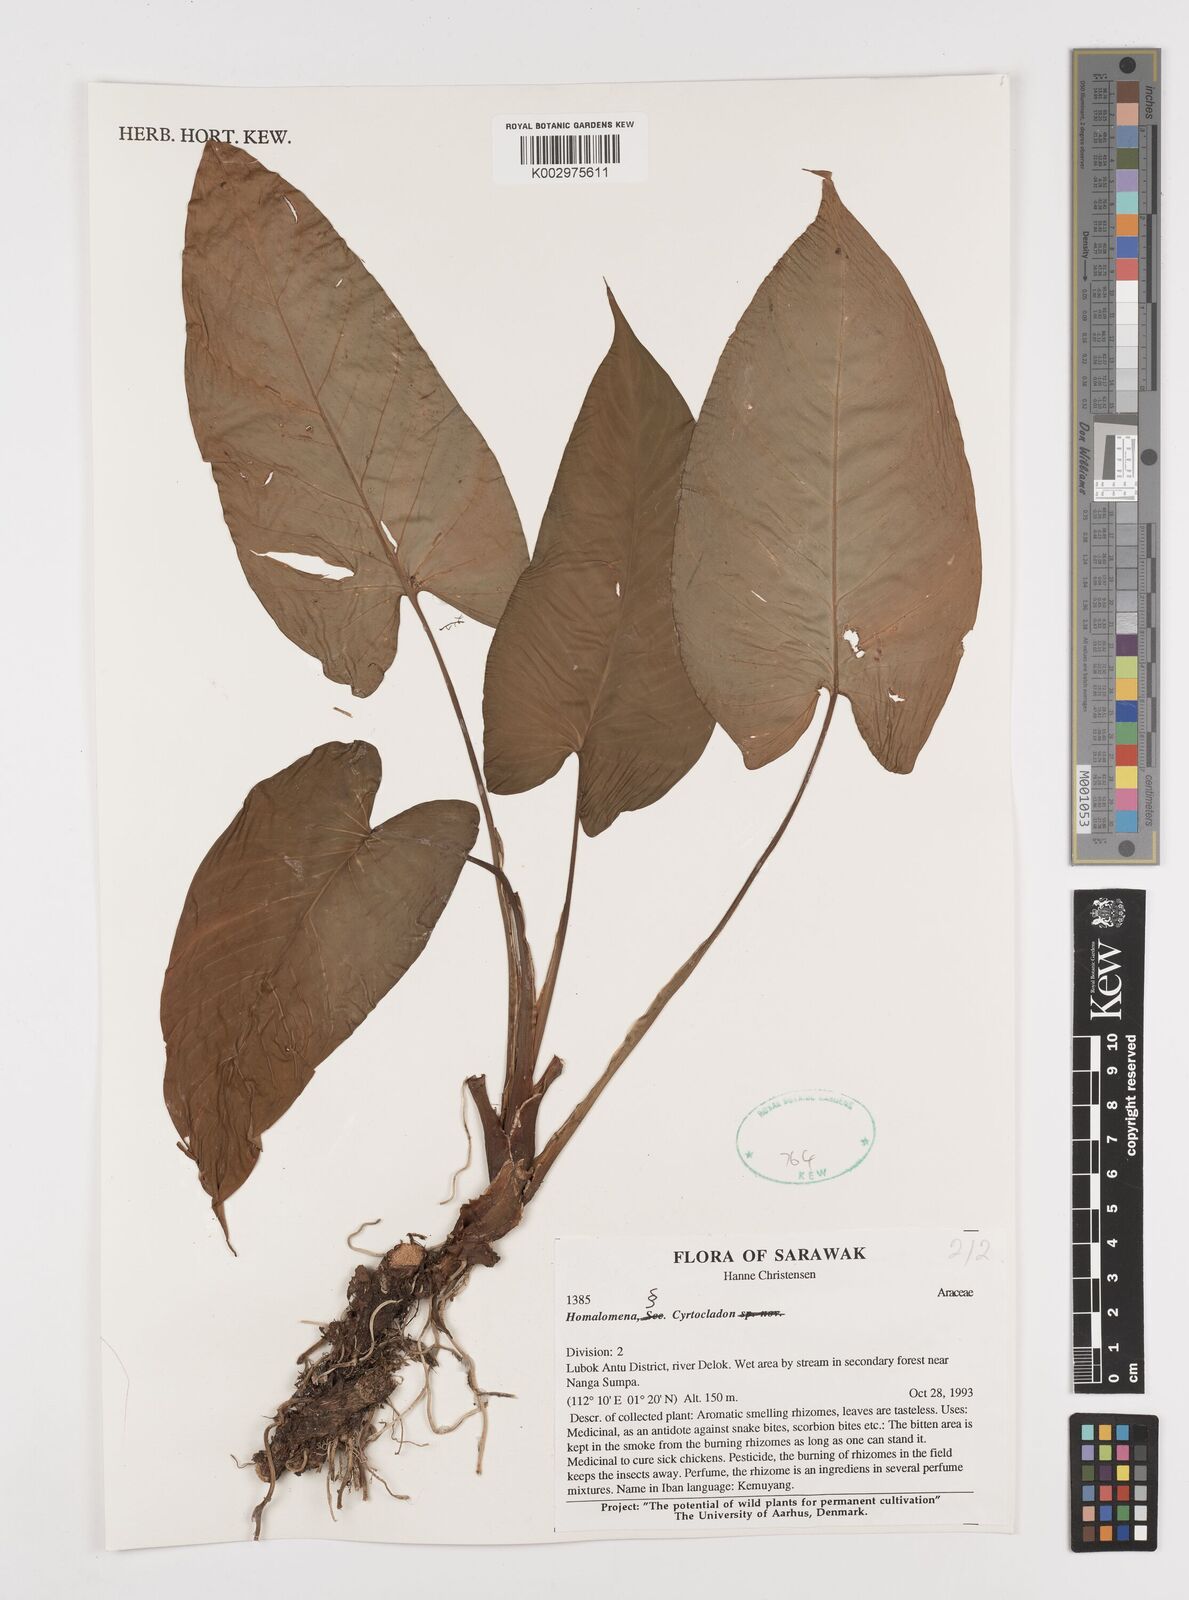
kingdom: Plantae
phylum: Tracheophyta
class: Liliopsida
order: Alismatales
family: Araceae
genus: Homalomena
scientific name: Homalomena
